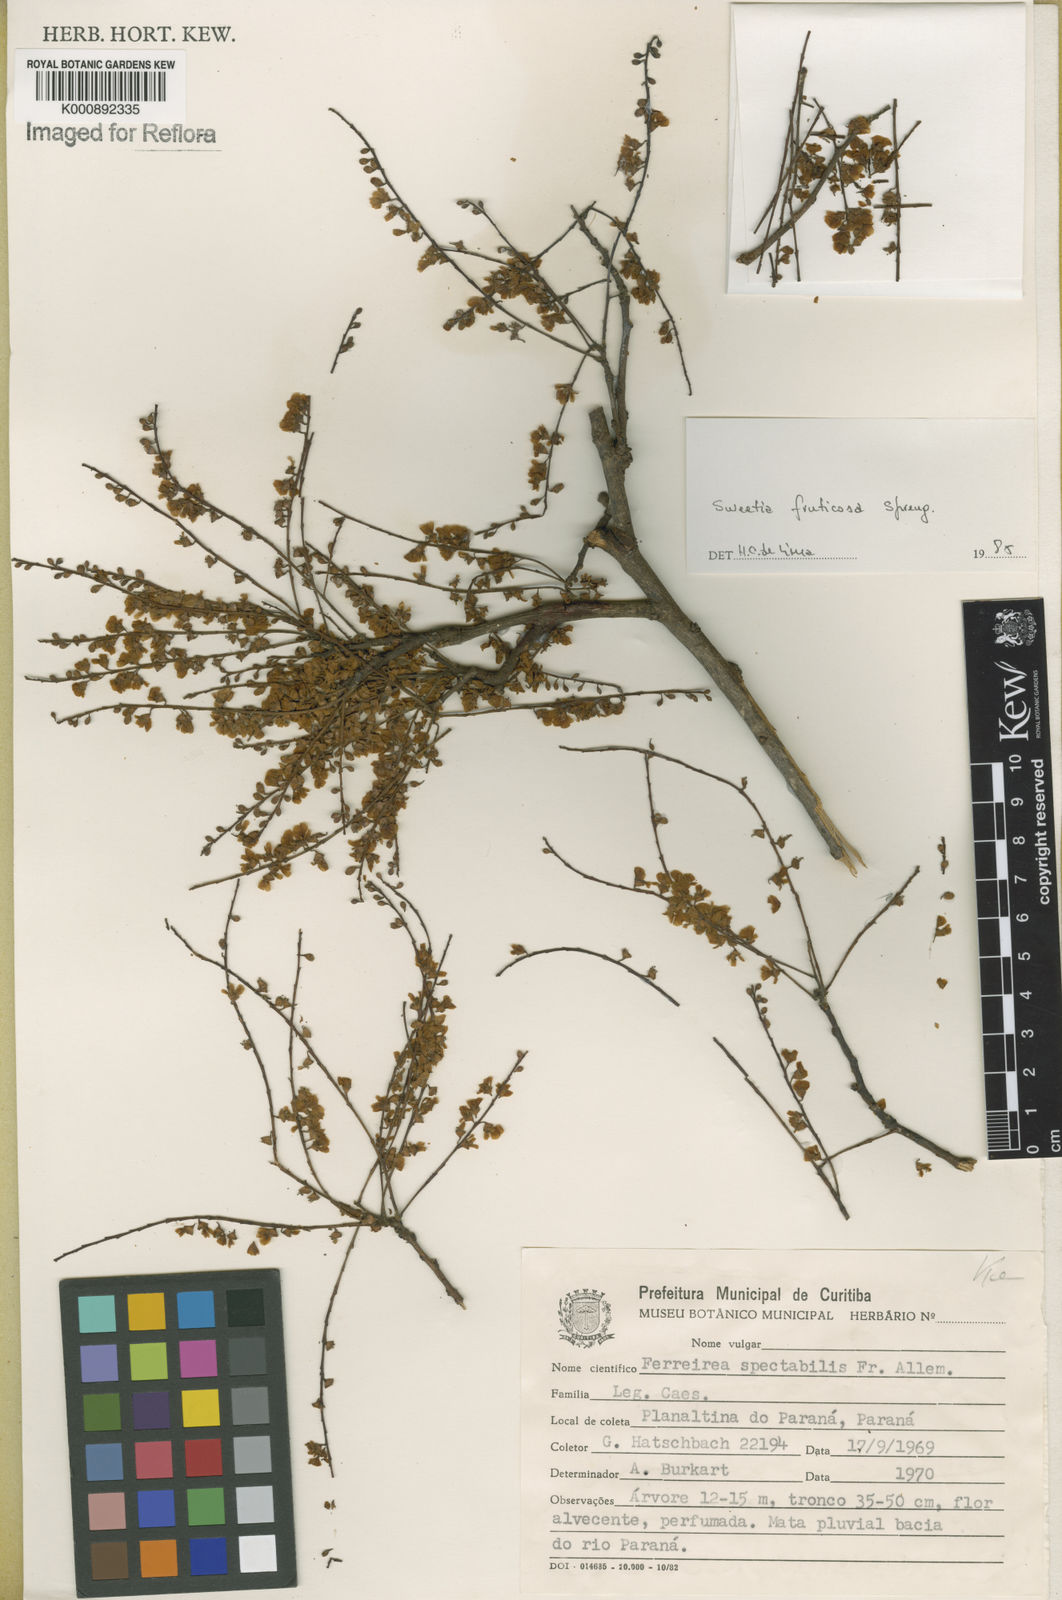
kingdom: Plantae
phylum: Tracheophyta
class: Magnoliopsida
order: Fabales
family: Fabaceae
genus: Sweetia
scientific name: Sweetia fruticosa
